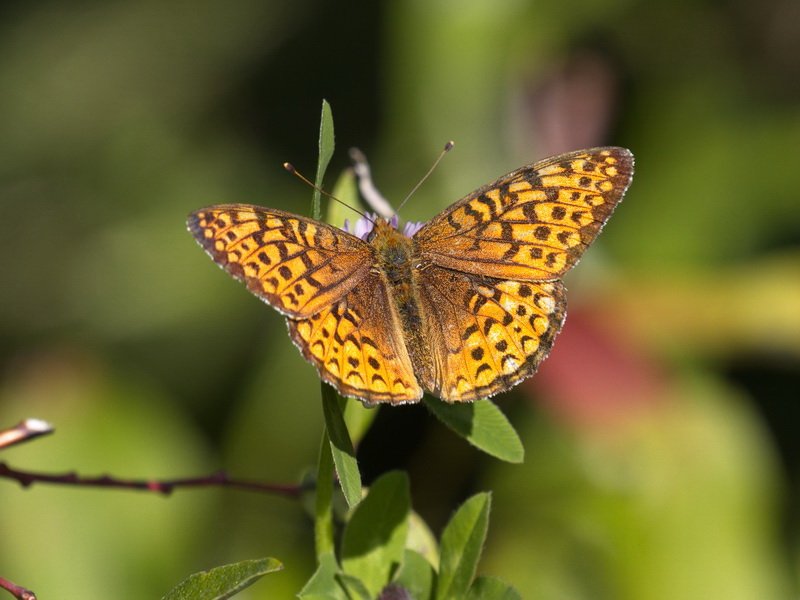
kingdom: Animalia
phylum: Arthropoda
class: Insecta
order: Lepidoptera
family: Nymphalidae
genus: Speyeria
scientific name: Speyeria atlantis
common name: Atlantis Fritillary
